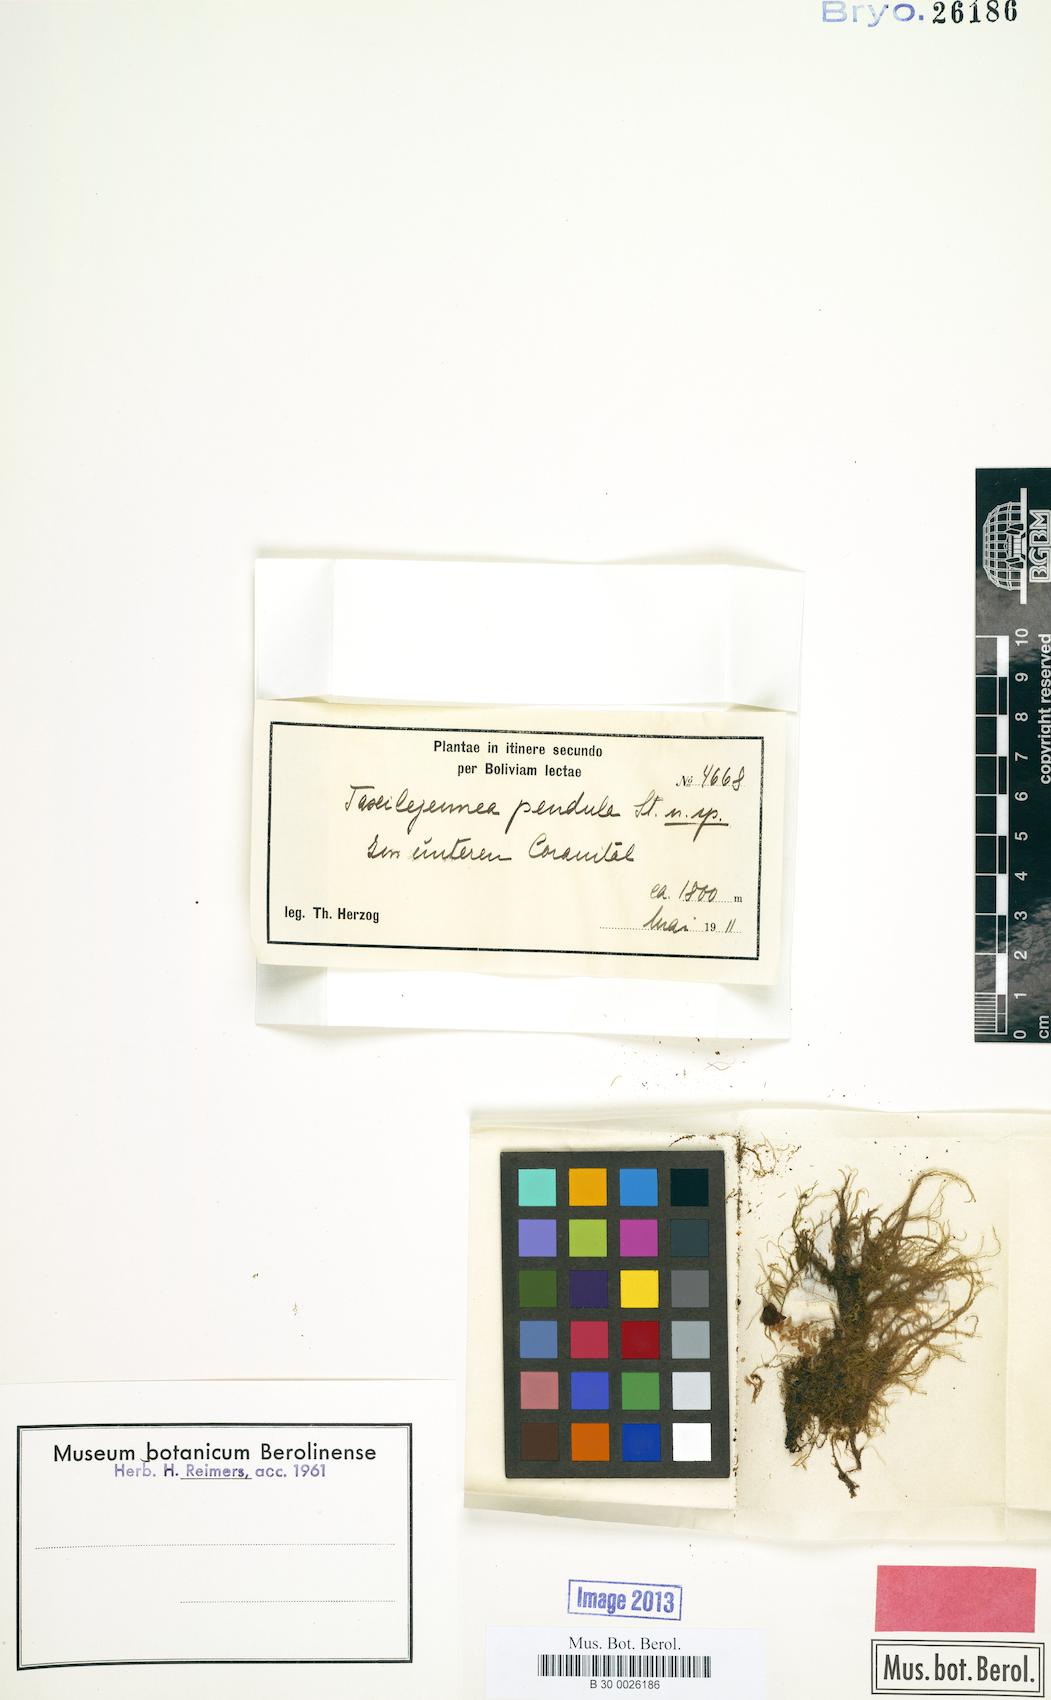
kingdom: Plantae
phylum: Marchantiophyta
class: Jungermanniopsida
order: Porellales
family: Lejeuneaceae
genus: Taxilejeunea
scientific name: Taxilejeunea pendula
